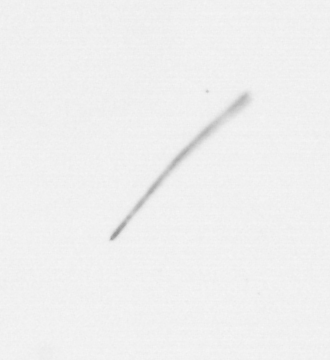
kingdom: Chromista
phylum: Ochrophyta
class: Bacillariophyceae
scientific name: Bacillariophyceae
